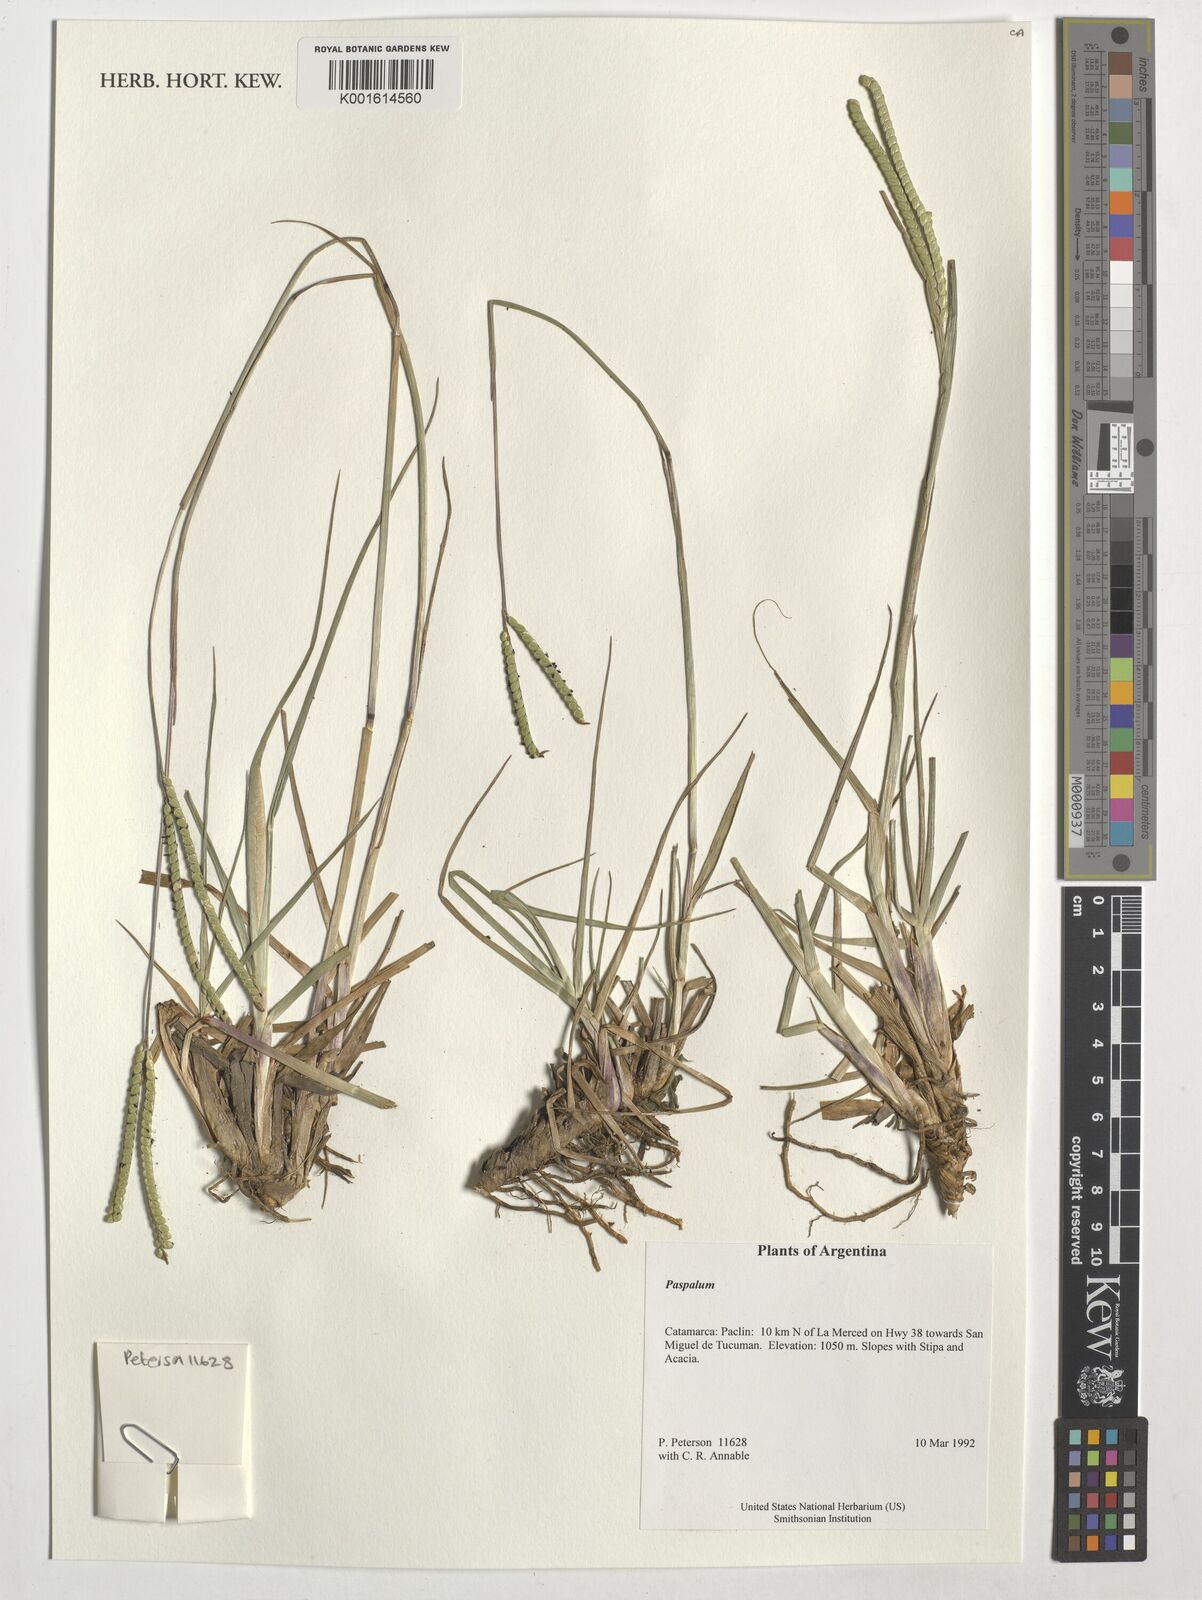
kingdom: Plantae
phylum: Tracheophyta
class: Liliopsida
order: Poales
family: Poaceae
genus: Paspalum
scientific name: Paspalum
